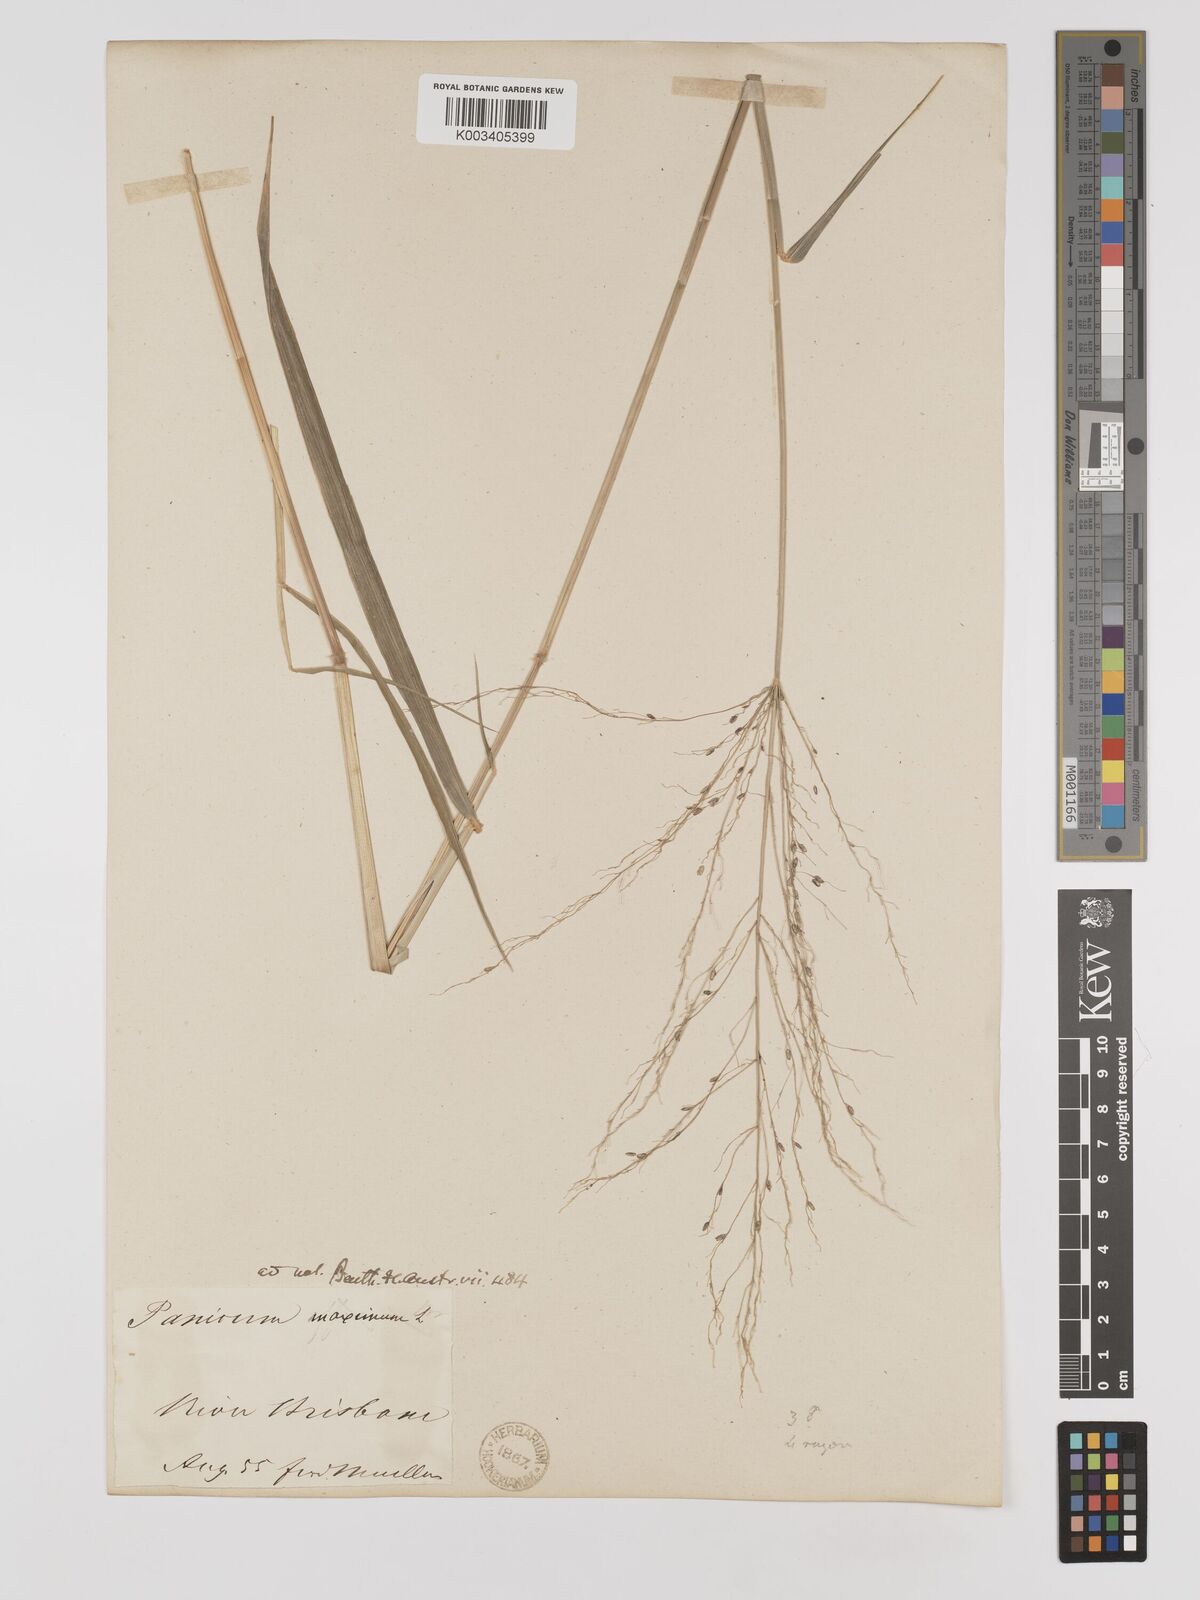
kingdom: Plantae
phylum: Tracheophyta
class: Liliopsida
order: Poales
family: Poaceae
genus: Megathyrsus
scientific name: Megathyrsus maximus
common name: Guineagrass
